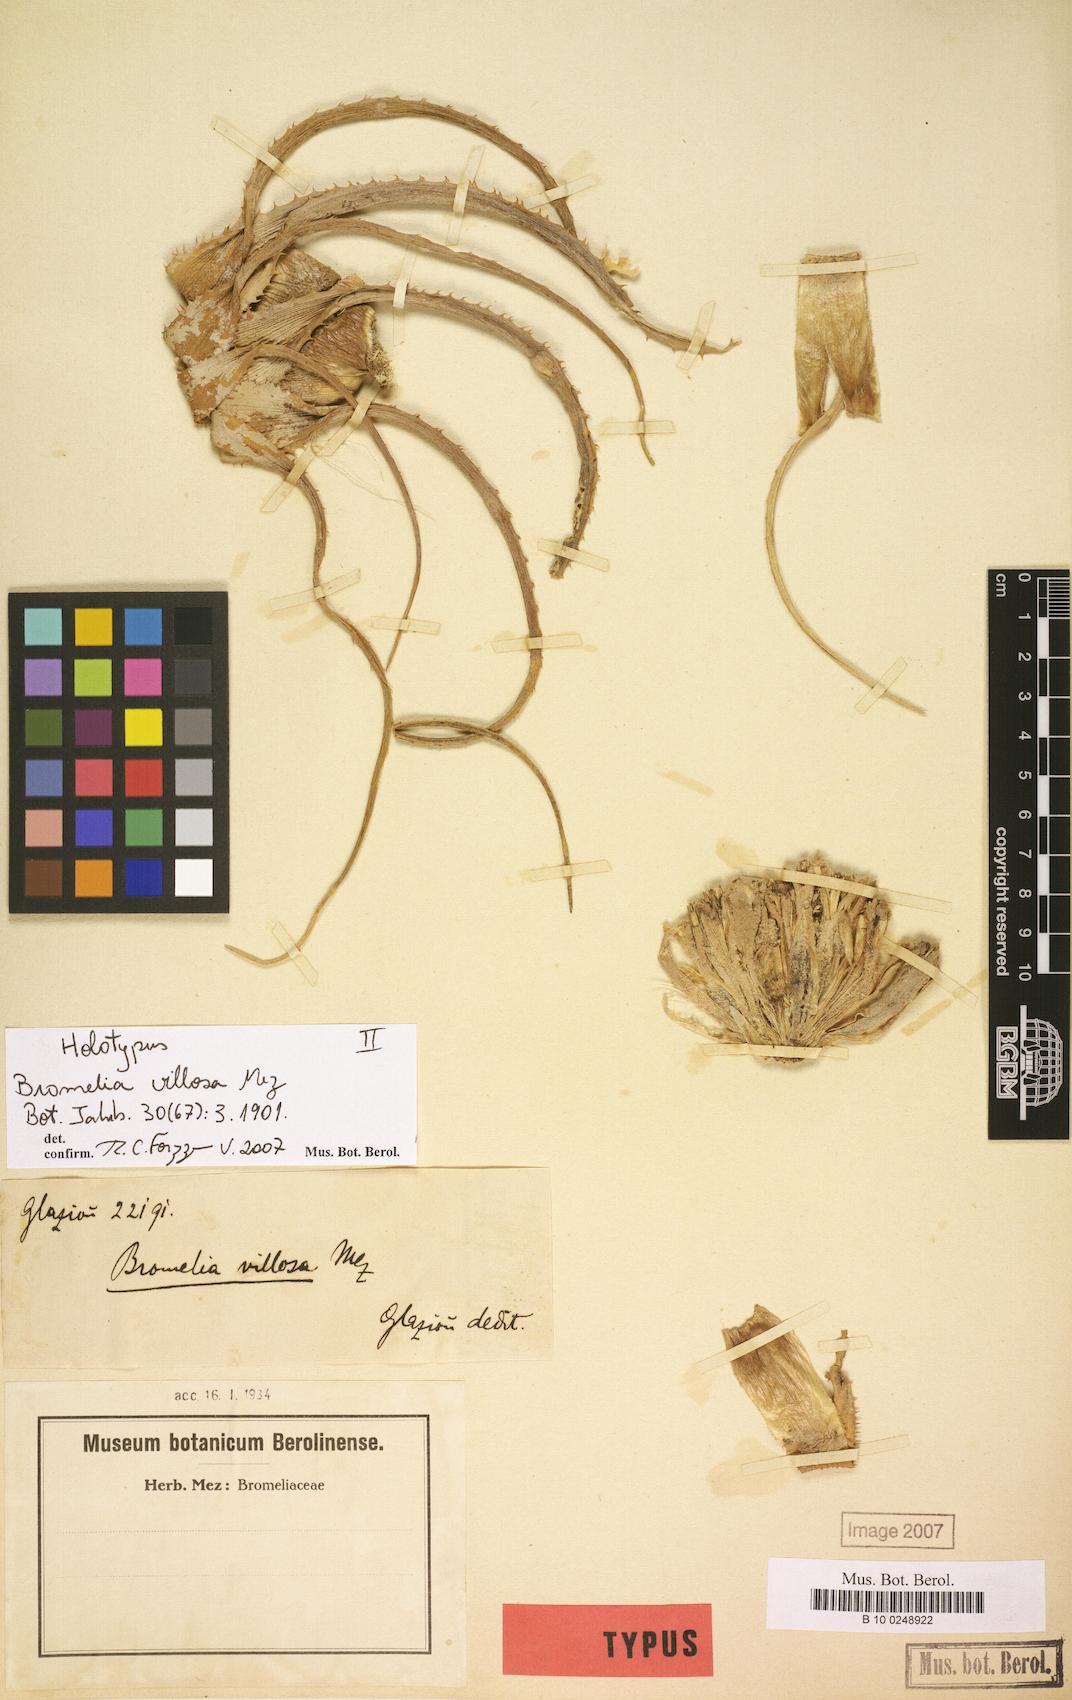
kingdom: Plantae
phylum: Tracheophyta
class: Liliopsida
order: Poales
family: Bromeliaceae
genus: Bromelia
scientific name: Bromelia villosa
